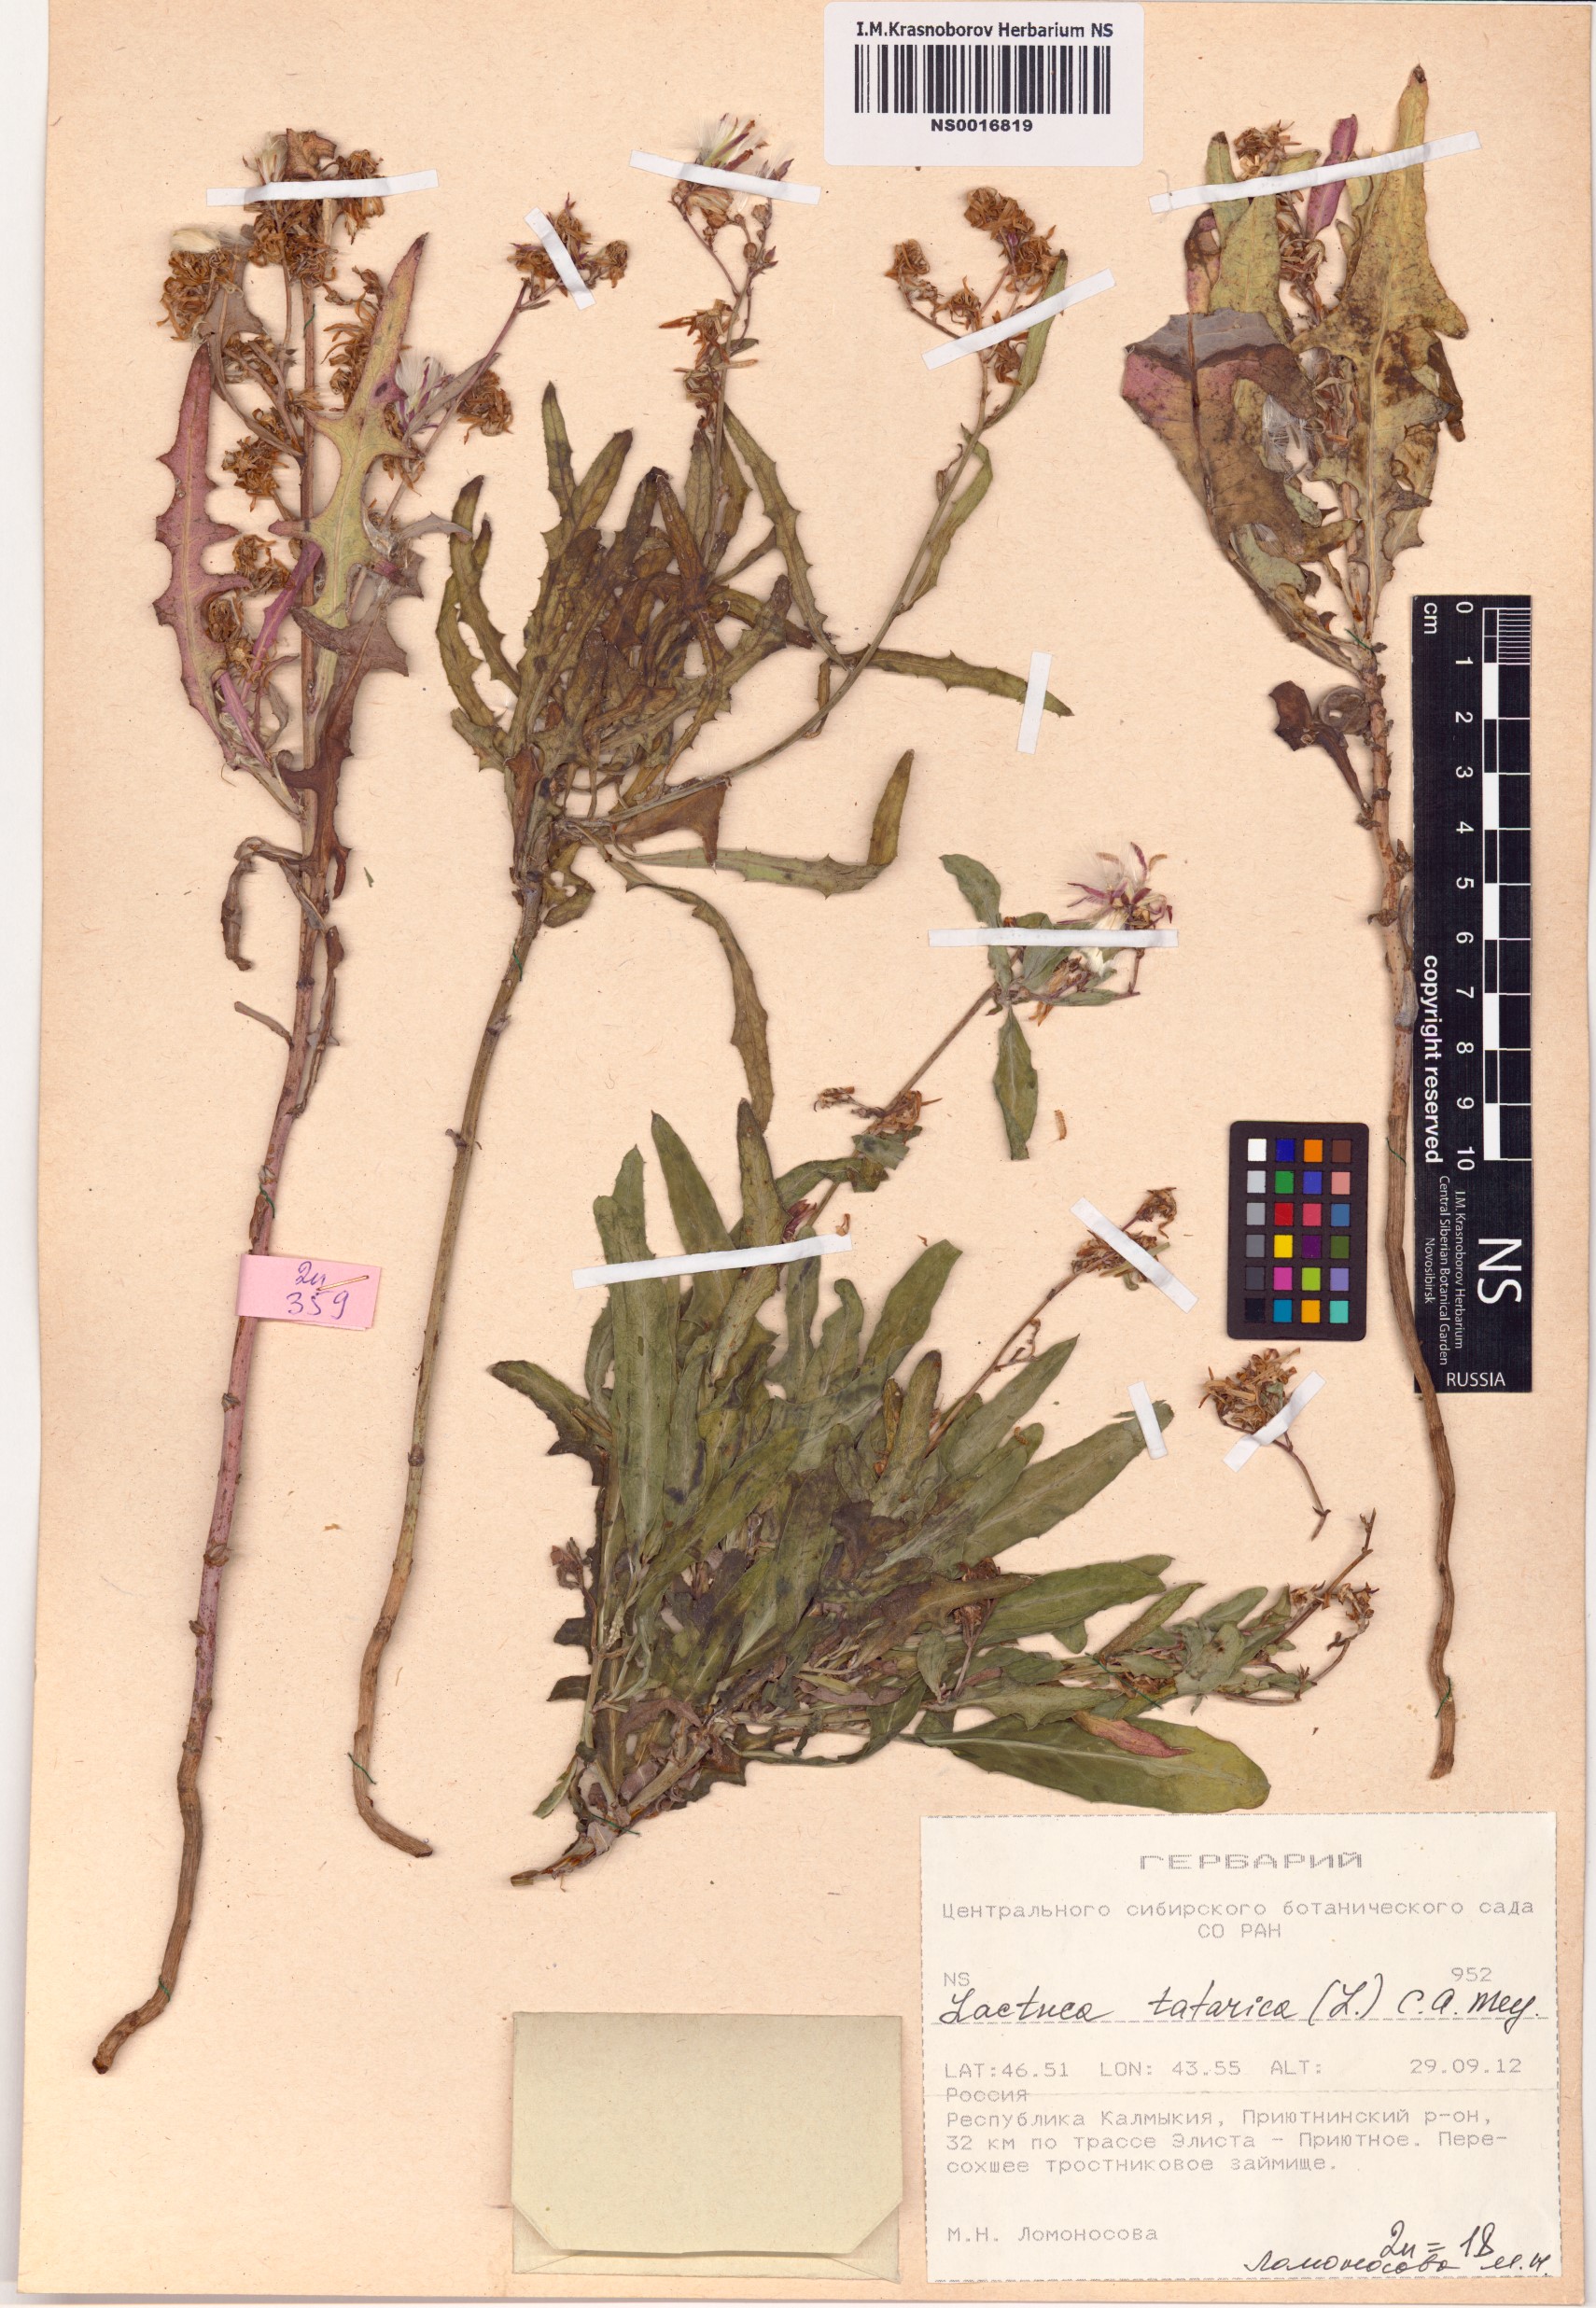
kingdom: Plantae
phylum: Tracheophyta
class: Magnoliopsida
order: Asterales
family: Asteraceae
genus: Lactuca
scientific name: Lactuca tatarica
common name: Blue lettuce
